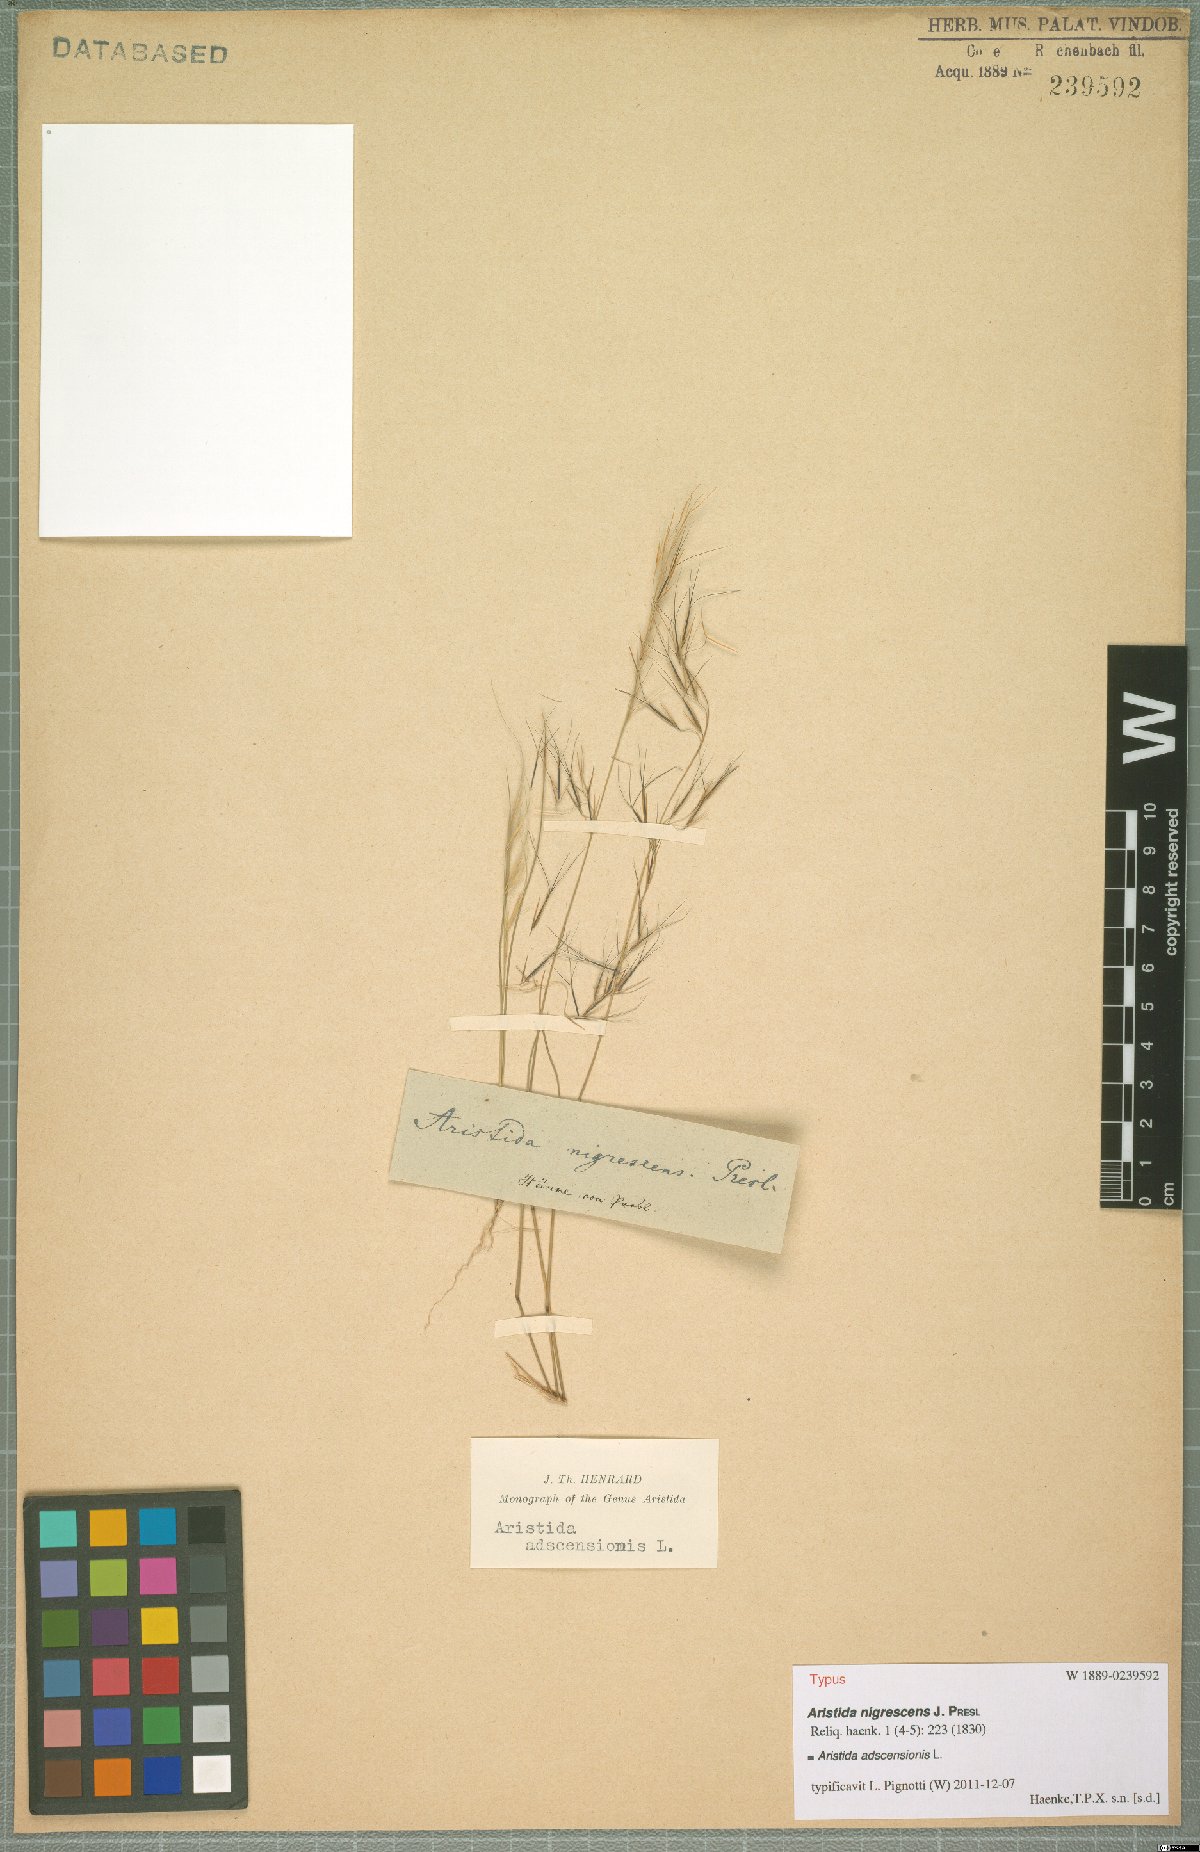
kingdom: Plantae
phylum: Tracheophyta
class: Liliopsida
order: Poales
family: Poaceae
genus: Aristida
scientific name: Aristida adscensionis
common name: Sixweeks threeawn
